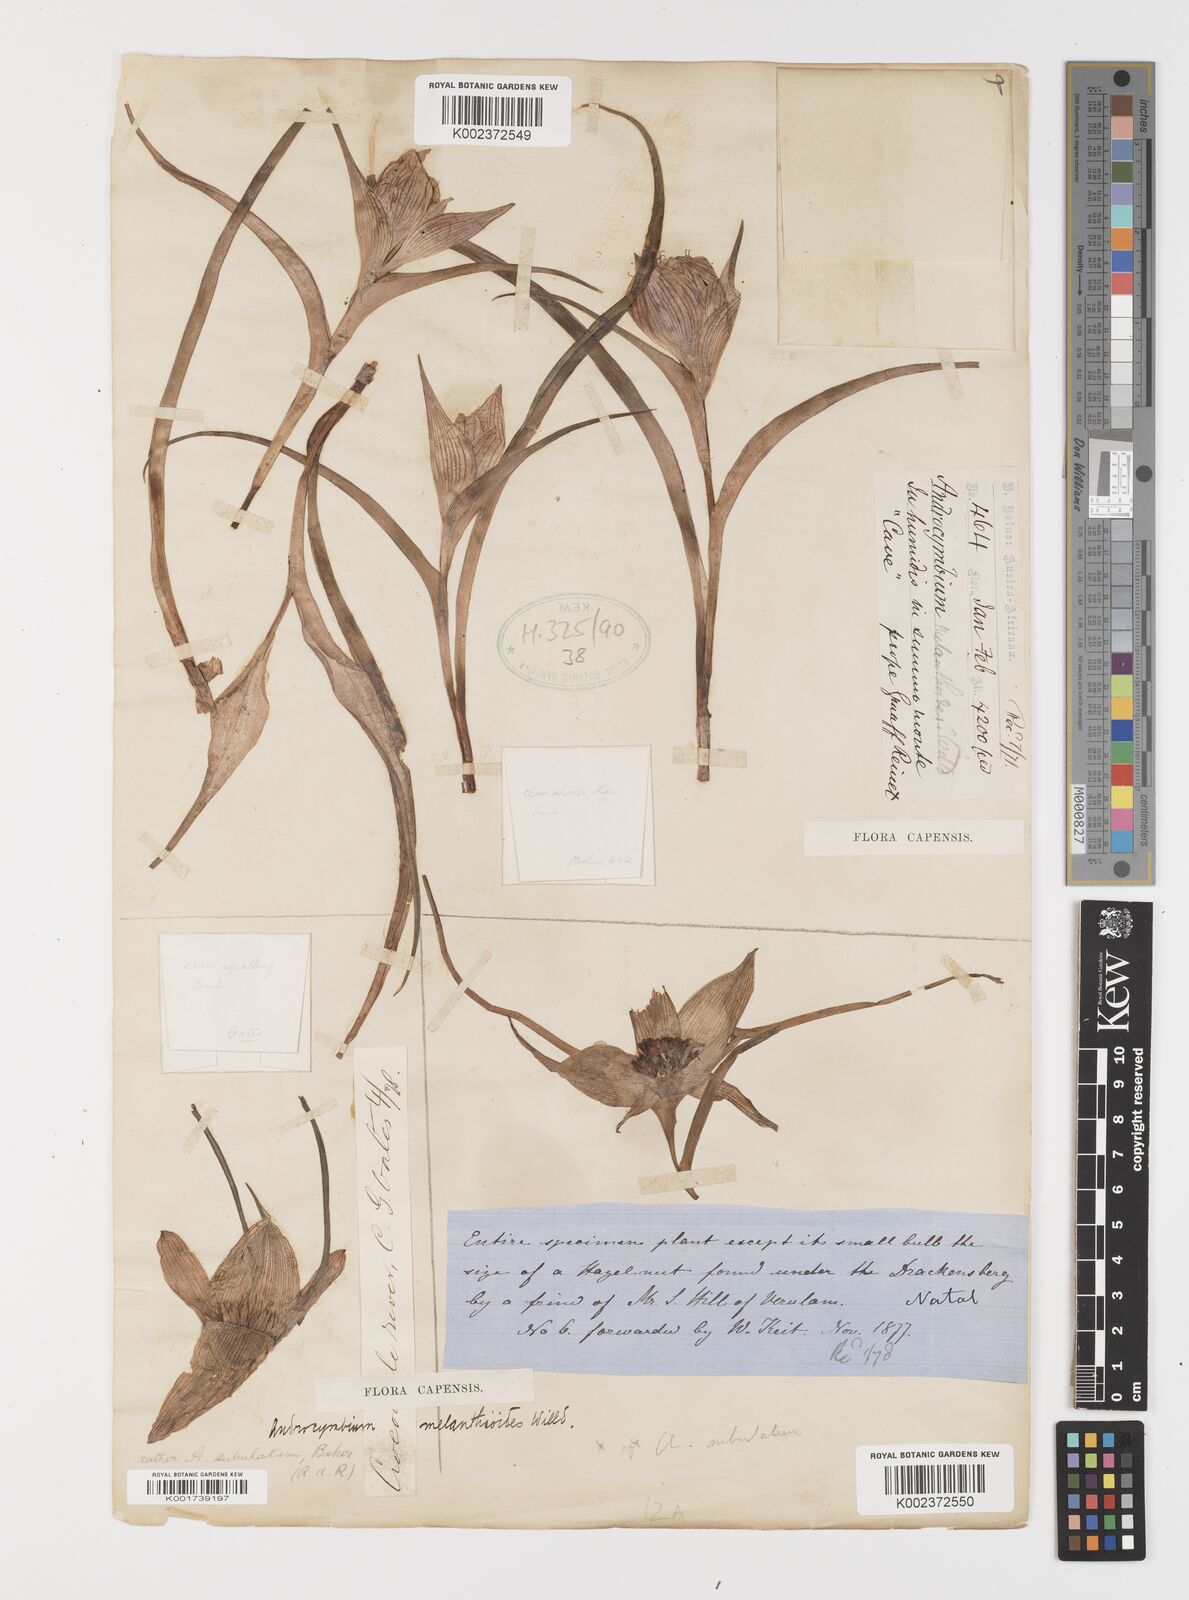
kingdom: Plantae
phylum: Tracheophyta
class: Liliopsida
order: Liliales
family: Colchicaceae
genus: Colchicum
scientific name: Colchicum melanthioides
